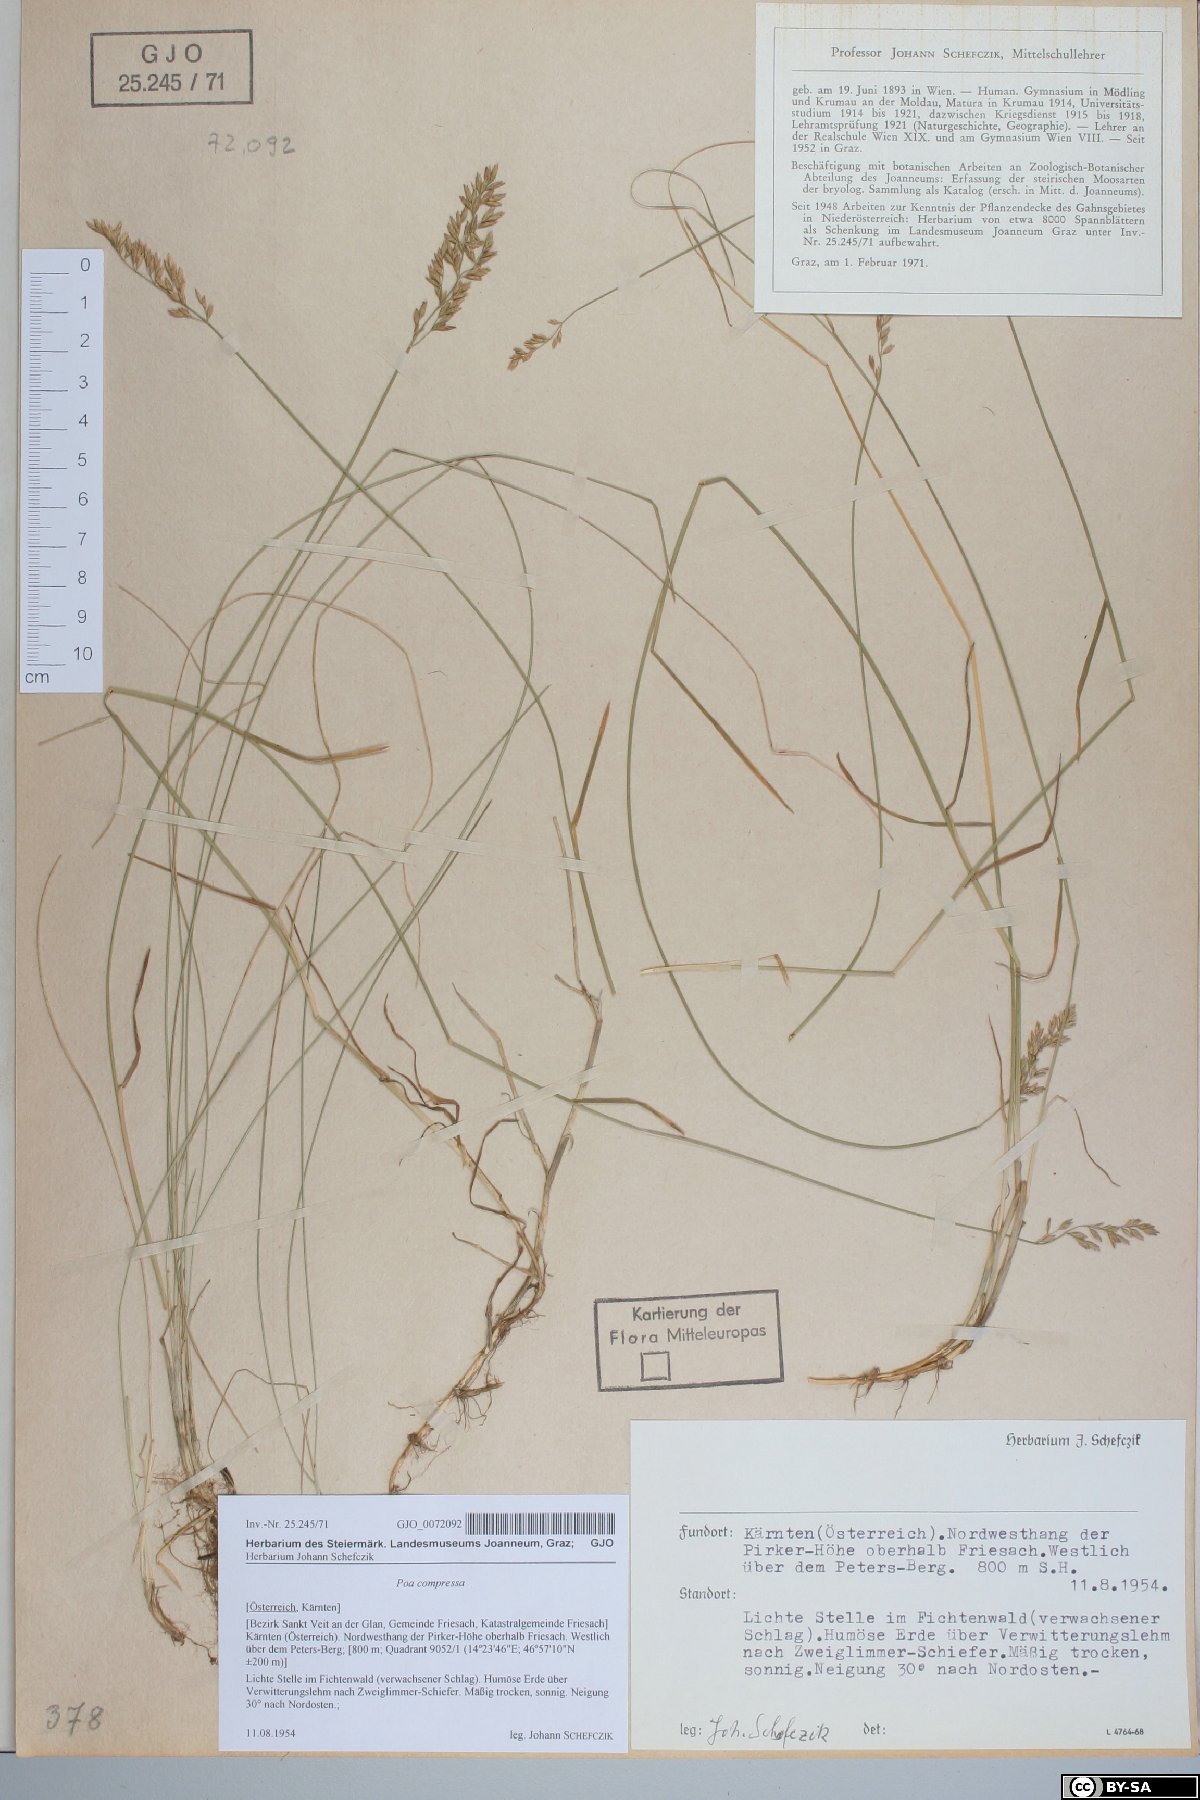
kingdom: Plantae
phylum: Tracheophyta
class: Liliopsida
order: Poales
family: Poaceae
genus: Poa
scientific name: Poa compressa
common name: Canada bluegrass
